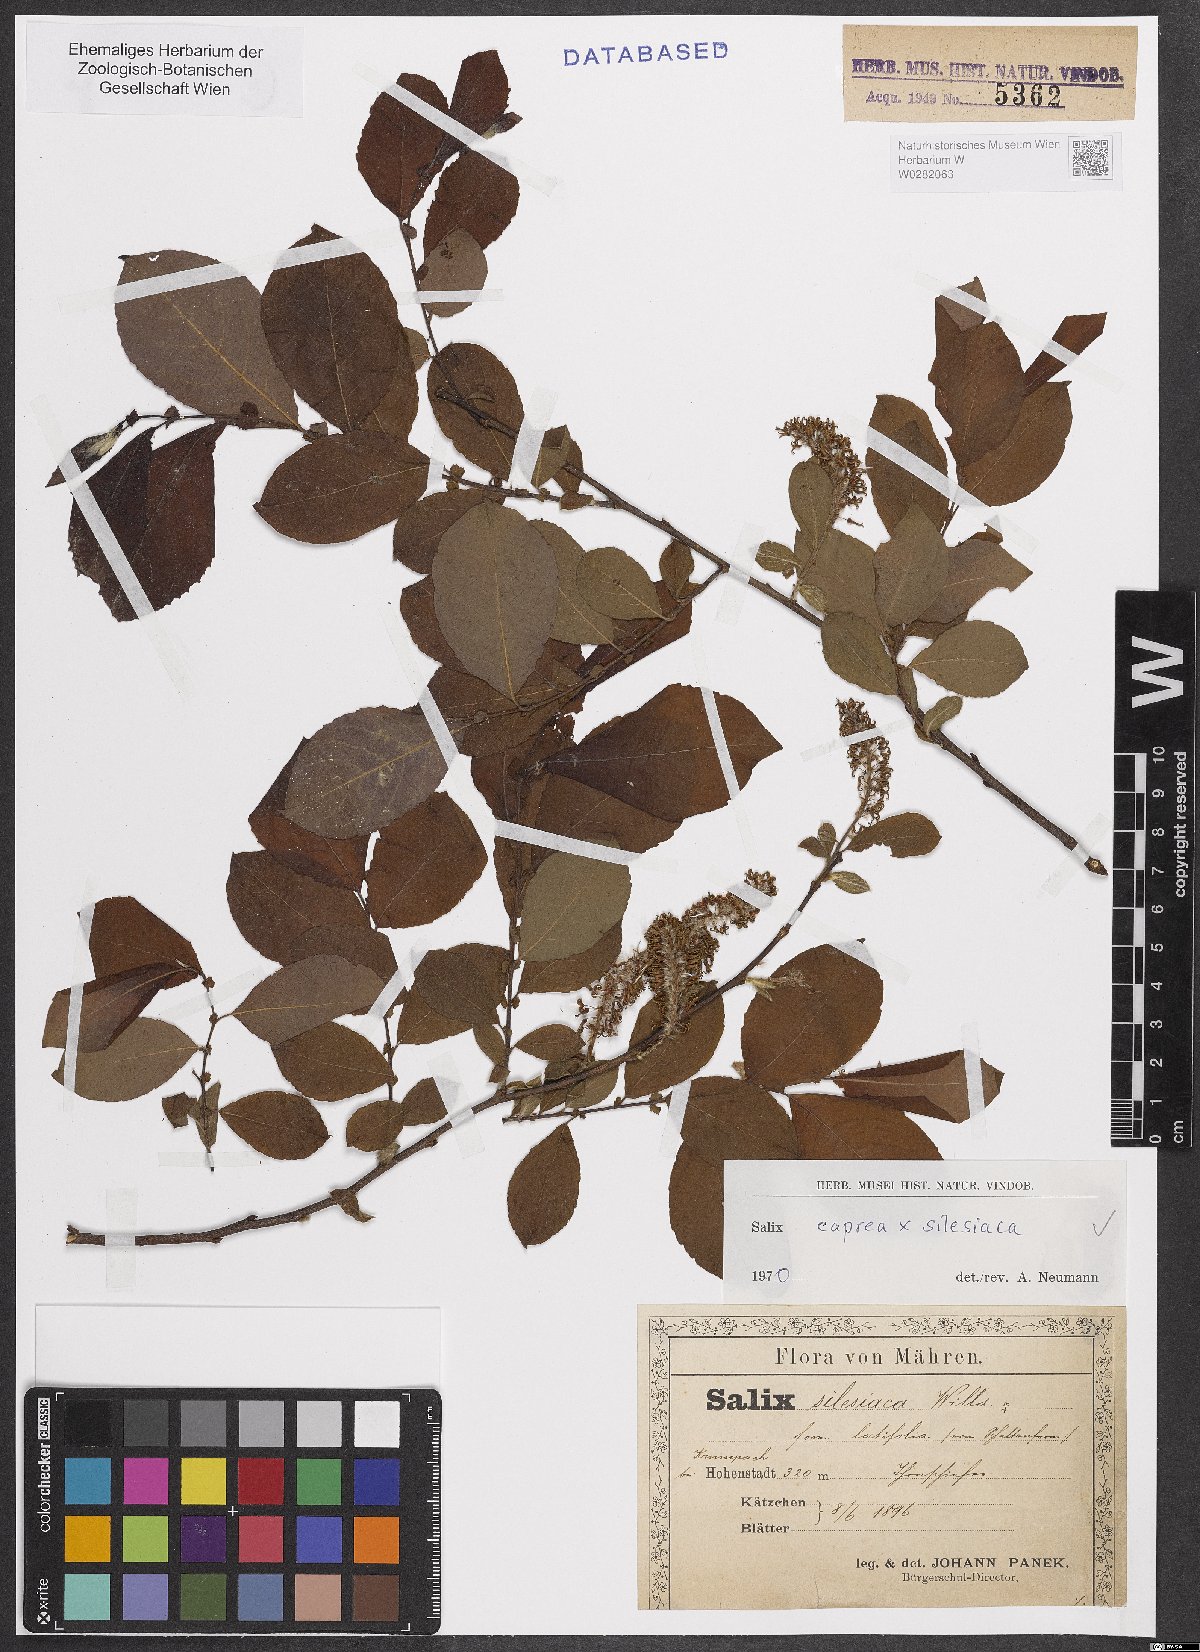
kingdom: Plantae
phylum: Tracheophyta
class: Magnoliopsida
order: Malpighiales
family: Salicaceae
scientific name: Salicaceae
